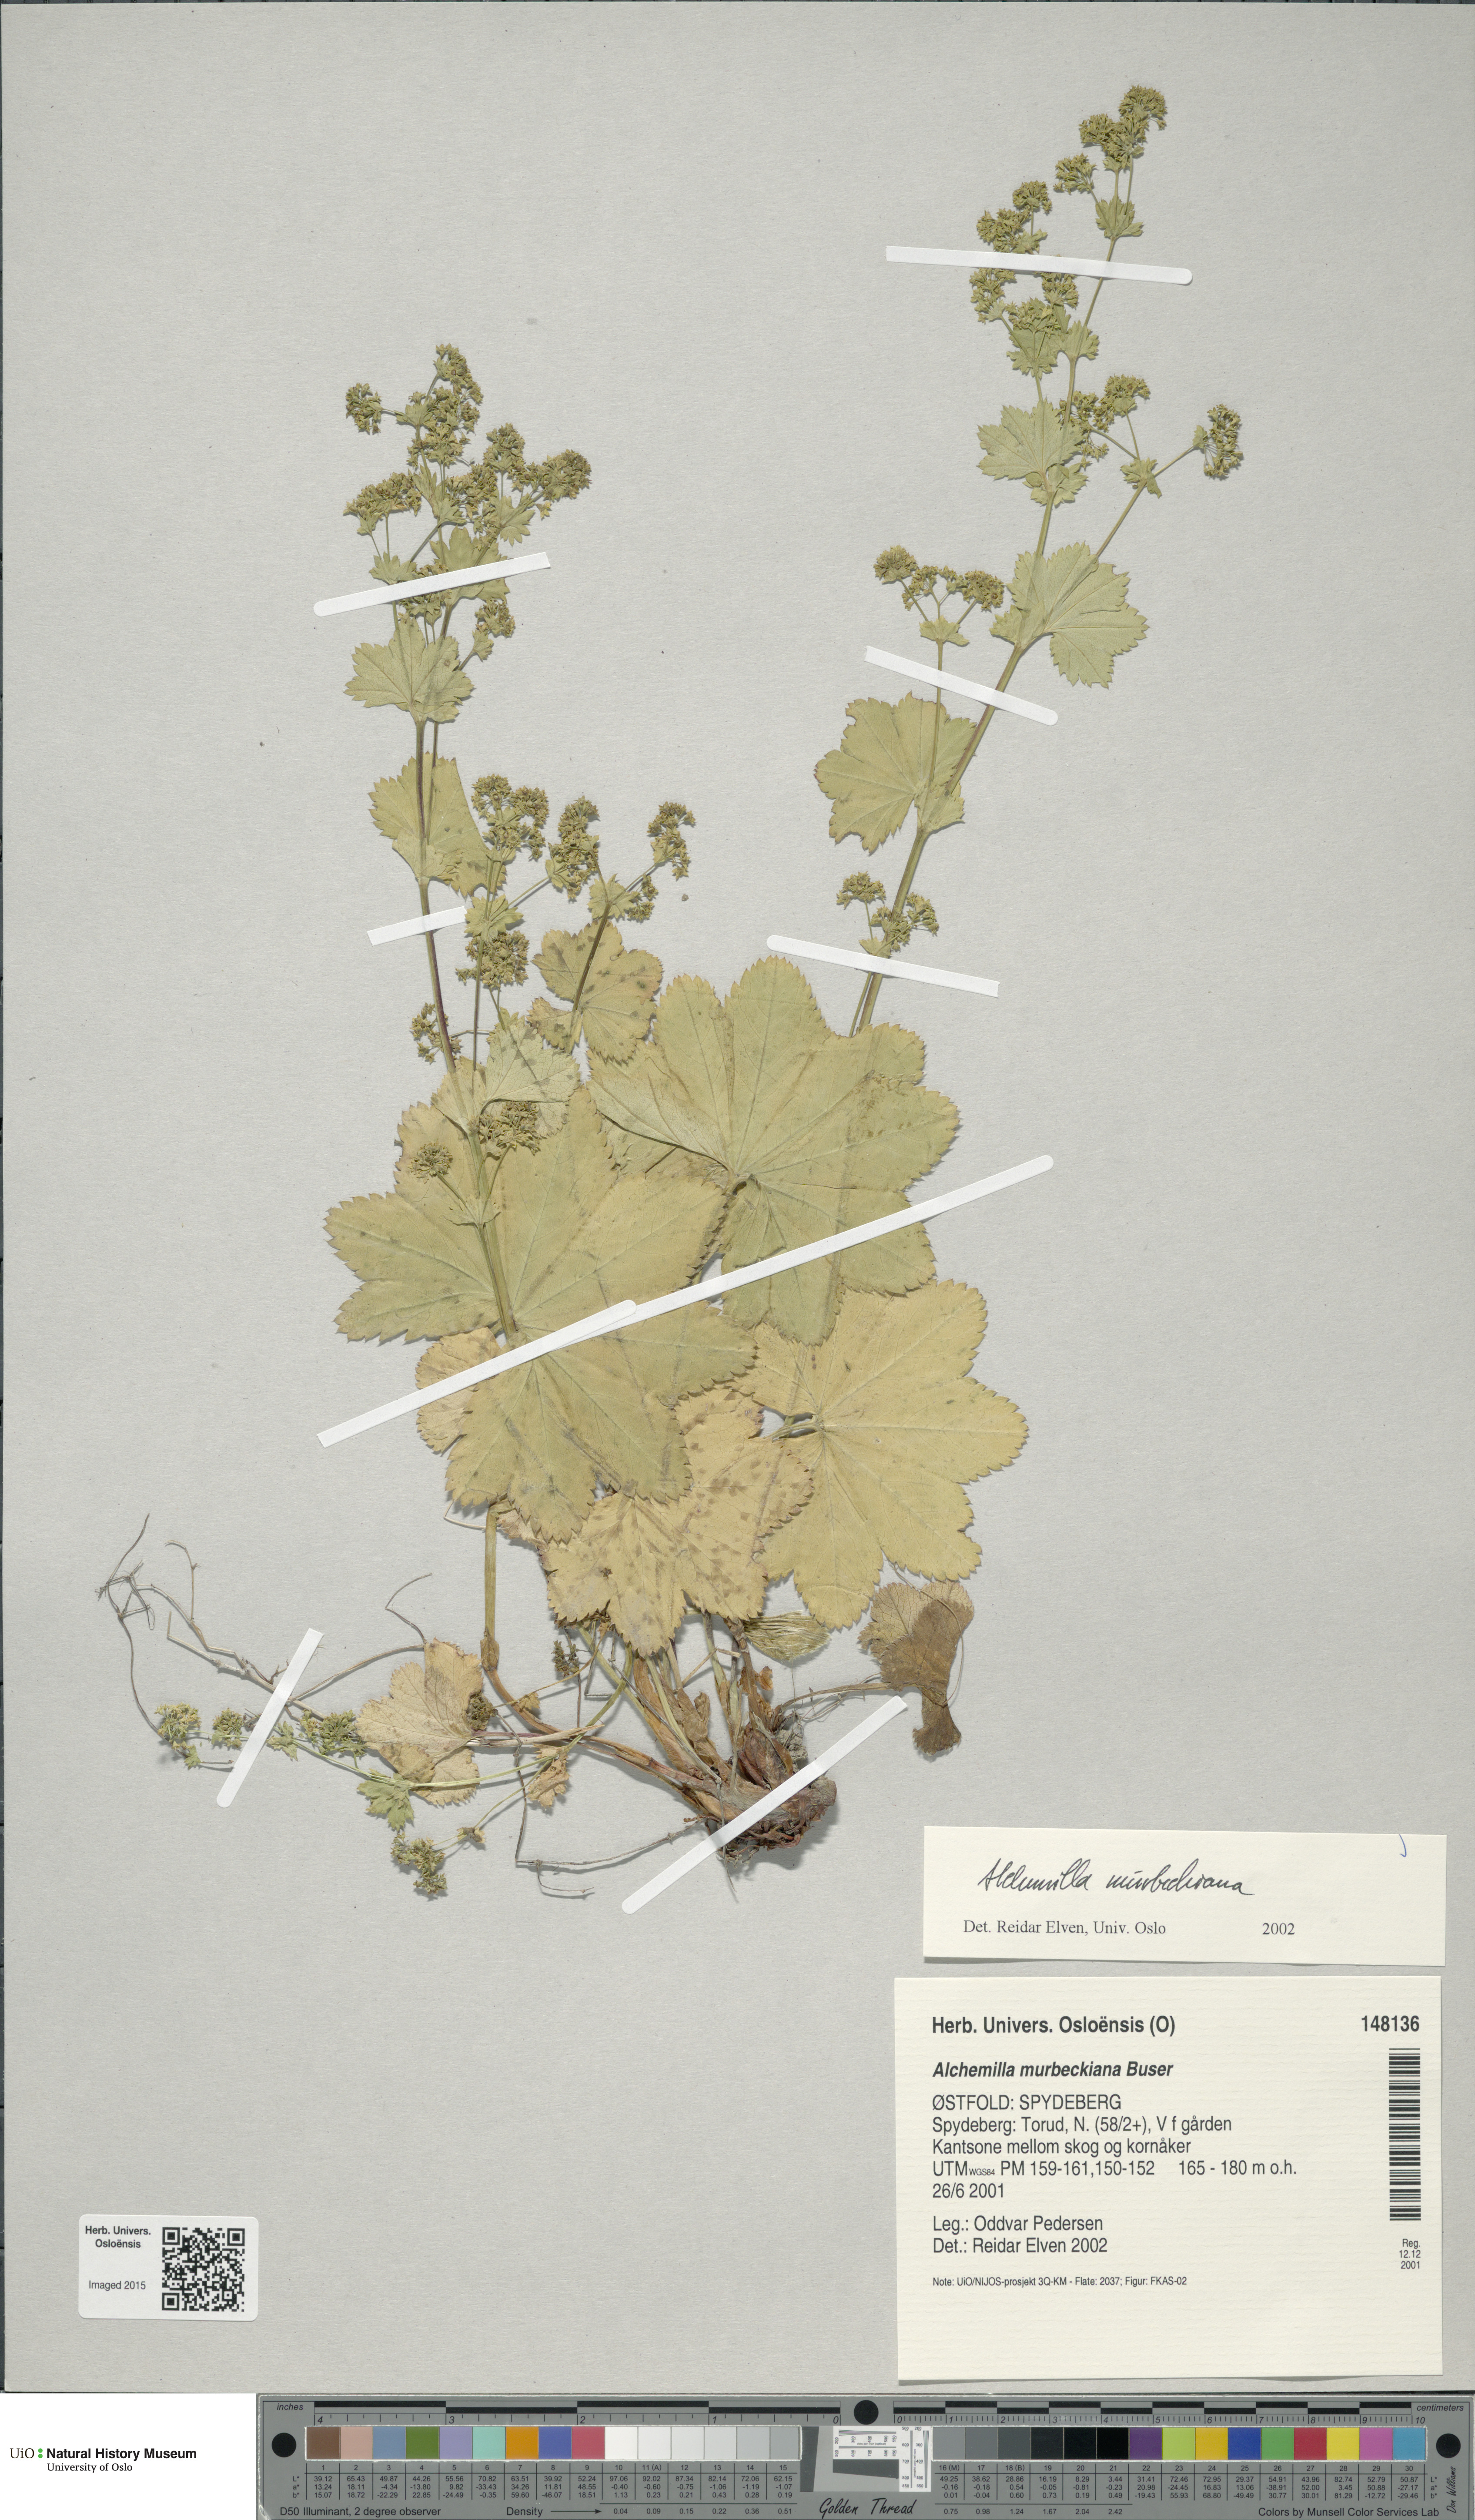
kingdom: Plantae
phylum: Tracheophyta
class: Magnoliopsida
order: Rosales
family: Rosaceae
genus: Alchemilla
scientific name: Alchemilla murbeckiana
